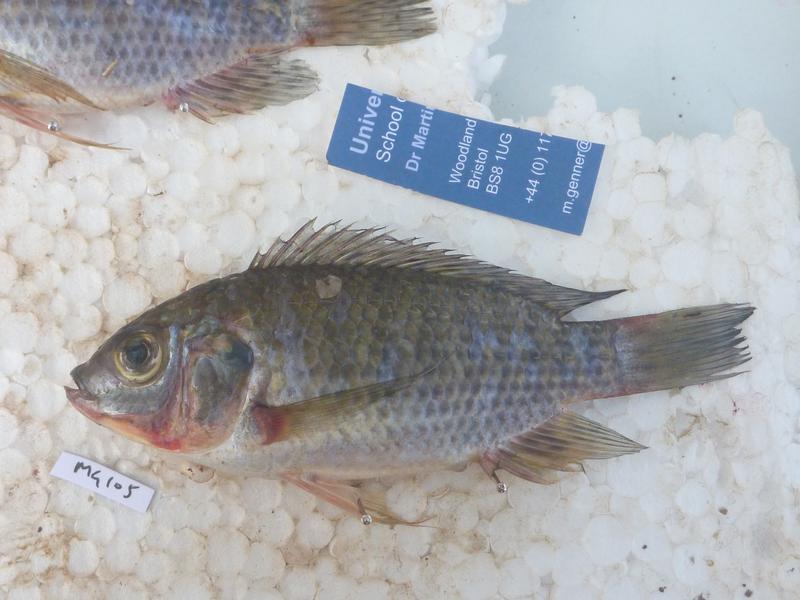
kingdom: Animalia
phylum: Chordata
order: Perciformes
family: Cichlidae
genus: Oreochromis
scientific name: Oreochromis leucostictus
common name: Blue spotted tilapia
